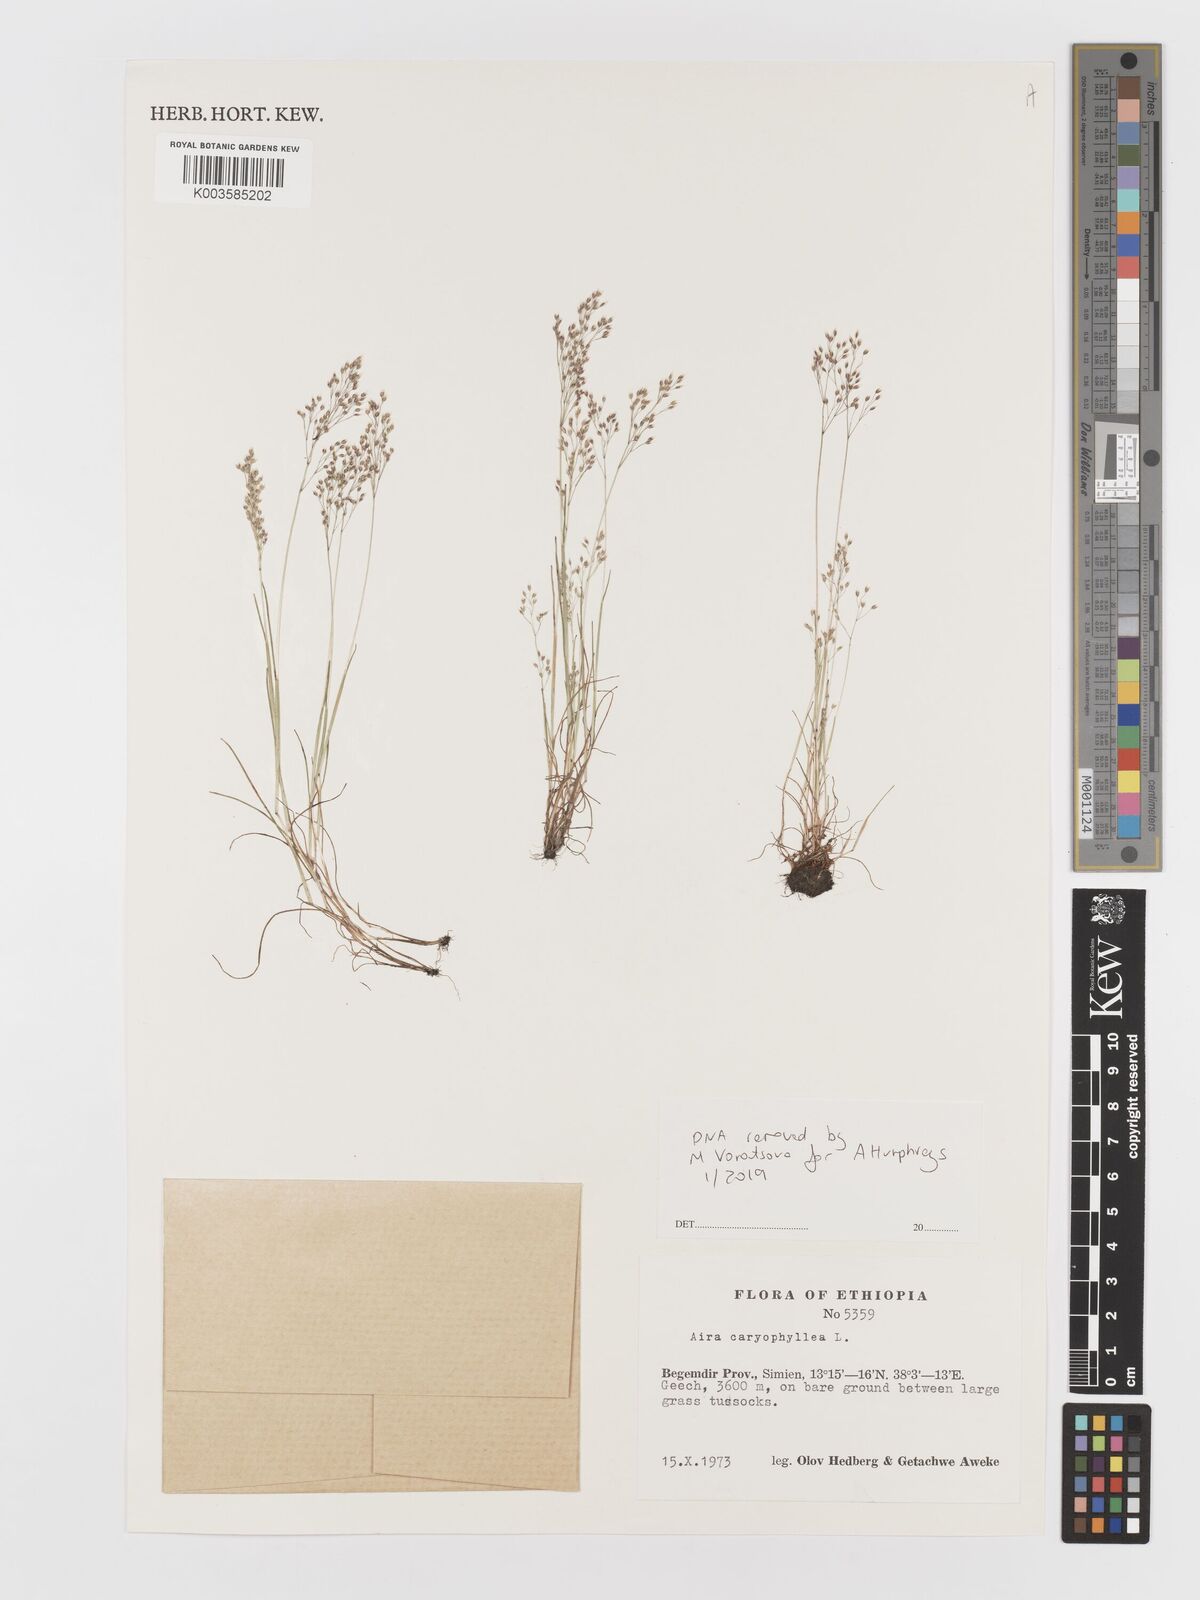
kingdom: Plantae
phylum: Tracheophyta
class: Liliopsida
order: Poales
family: Poaceae
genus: Aira
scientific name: Aira caryophyllea
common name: Silver hairgrass
